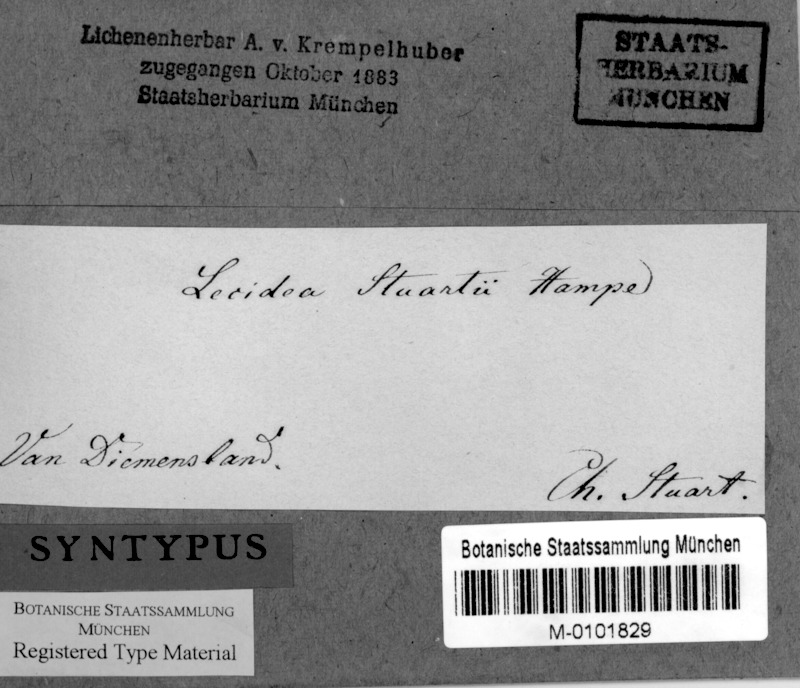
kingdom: Fungi
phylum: Ascomycota
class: Lecanoromycetes
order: Lecanorales
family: Ramboldiaceae
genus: Ramboldia
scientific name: Ramboldia stuartii
